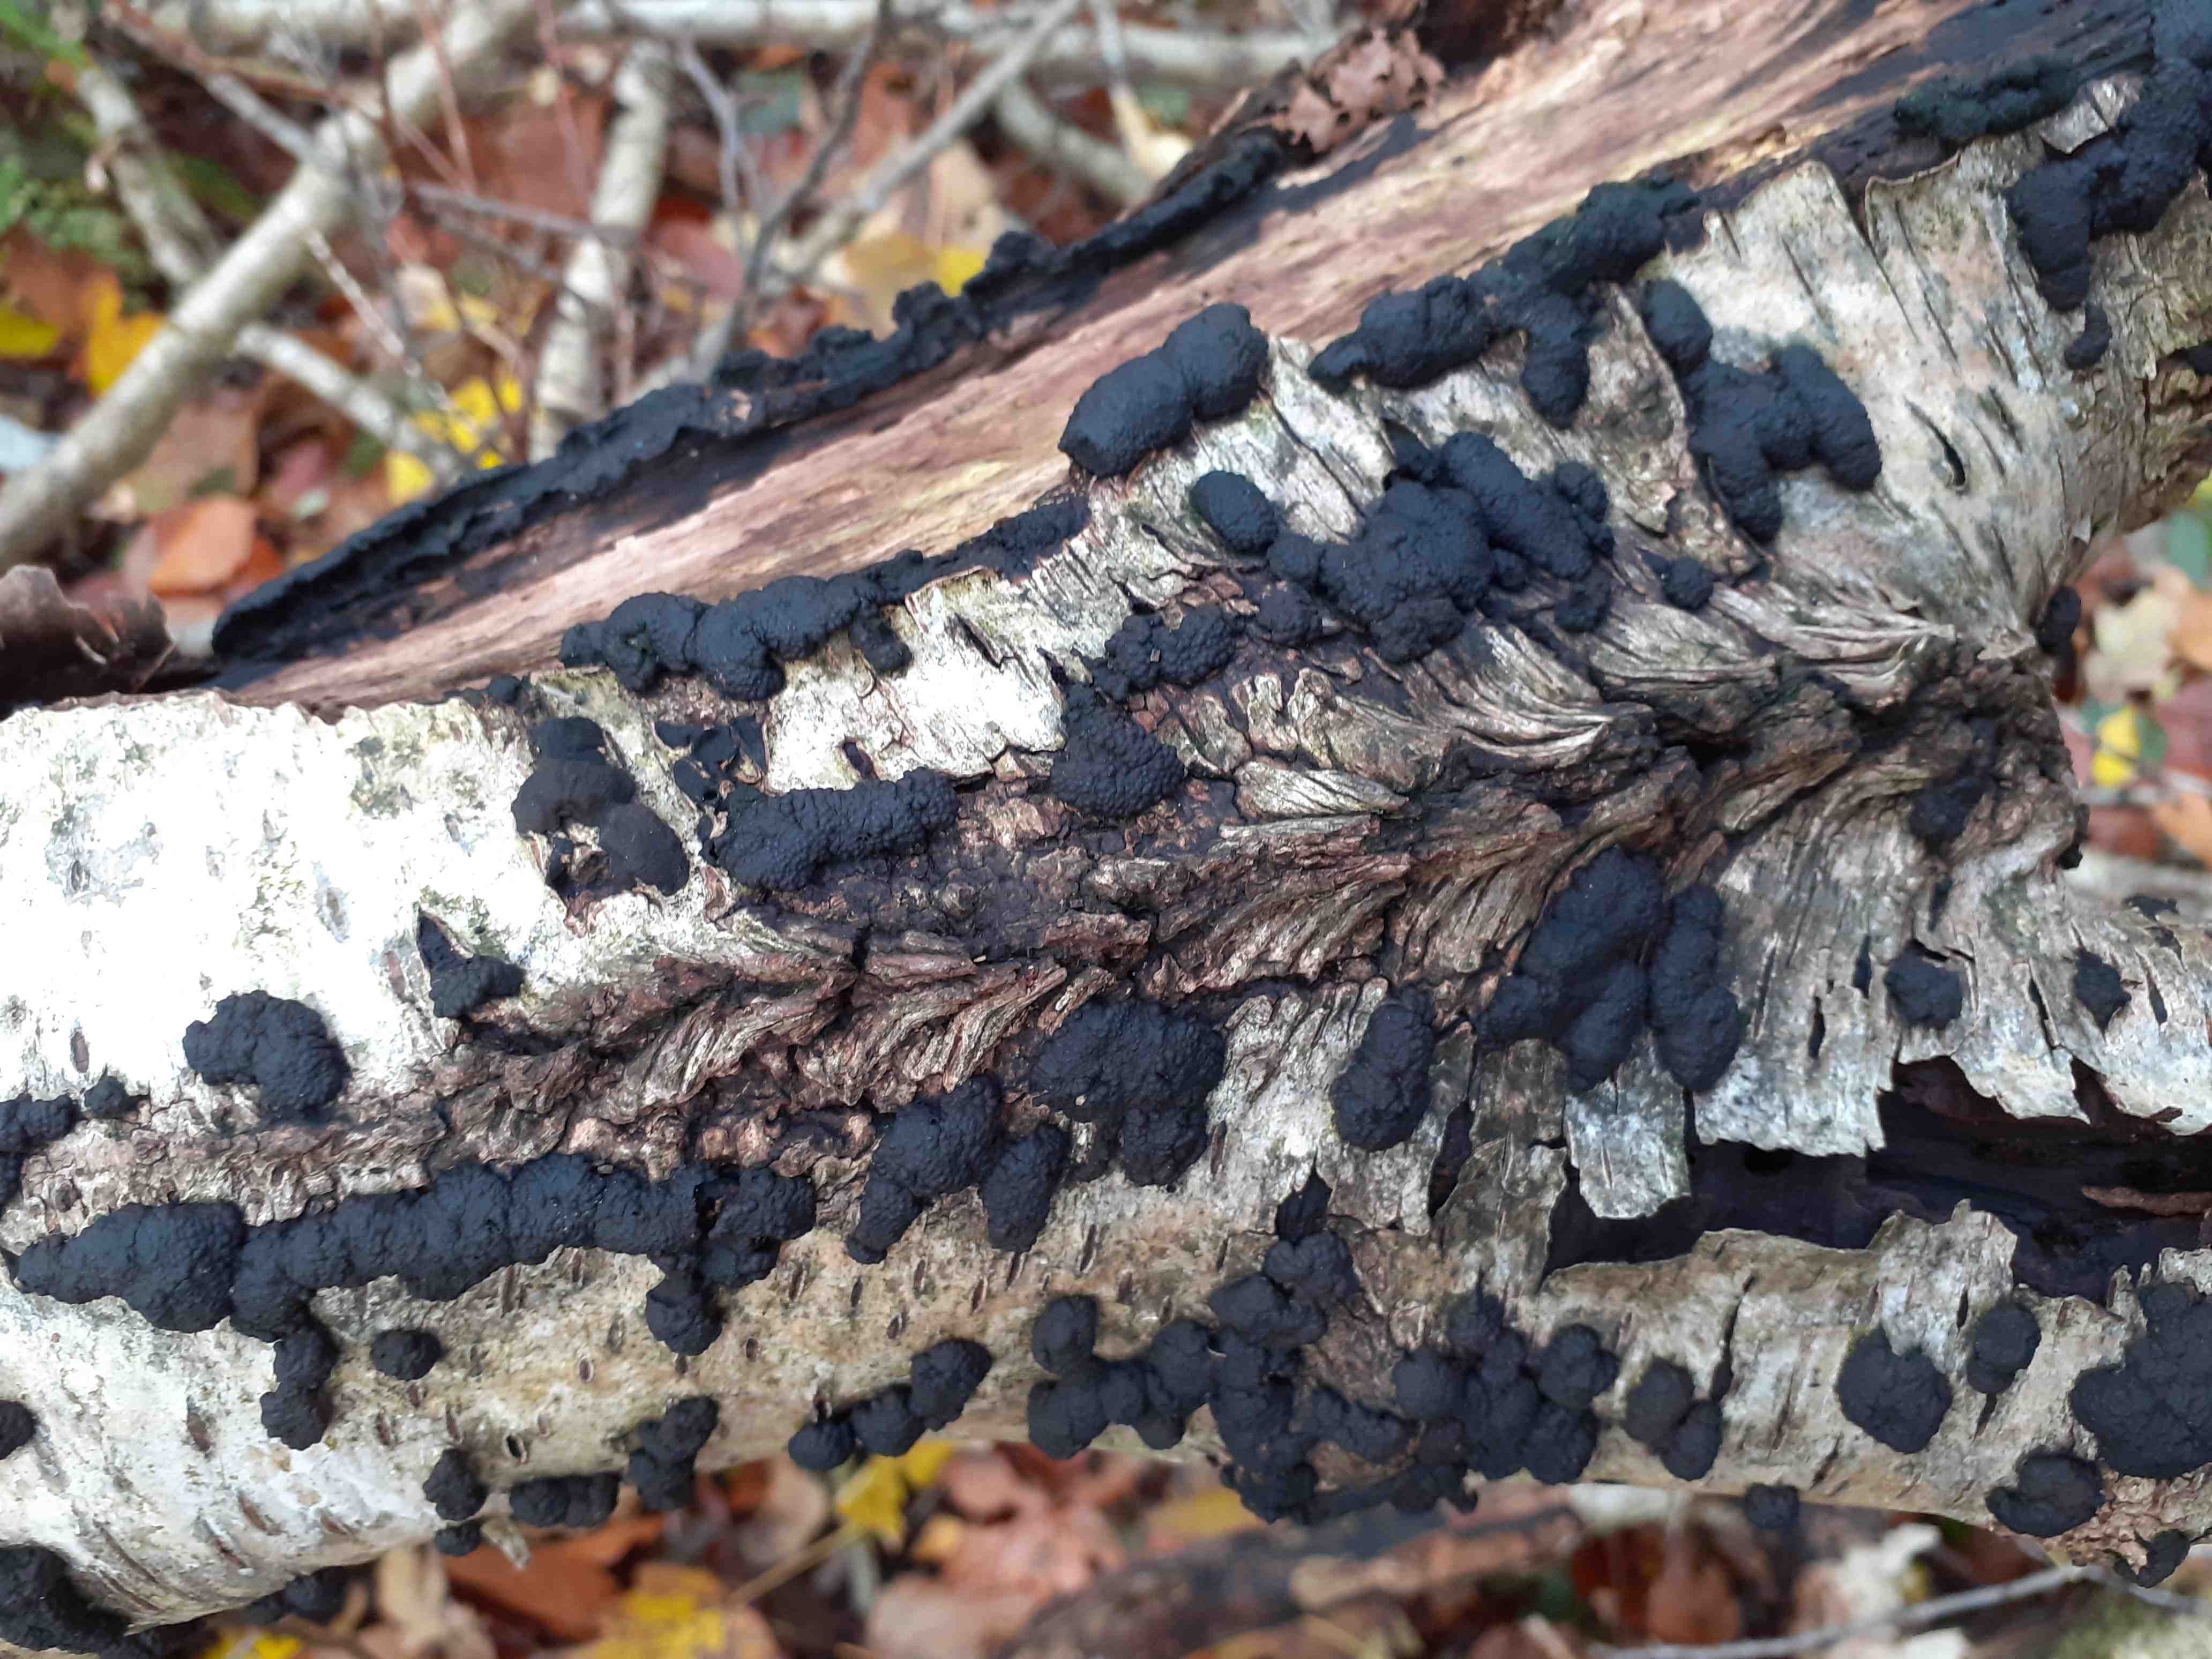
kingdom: Fungi
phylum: Ascomycota
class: Sordariomycetes
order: Xylariales
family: Hypoxylaceae
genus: Jackrogersella
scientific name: Jackrogersella multiformis
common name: foranderlig kulbær
